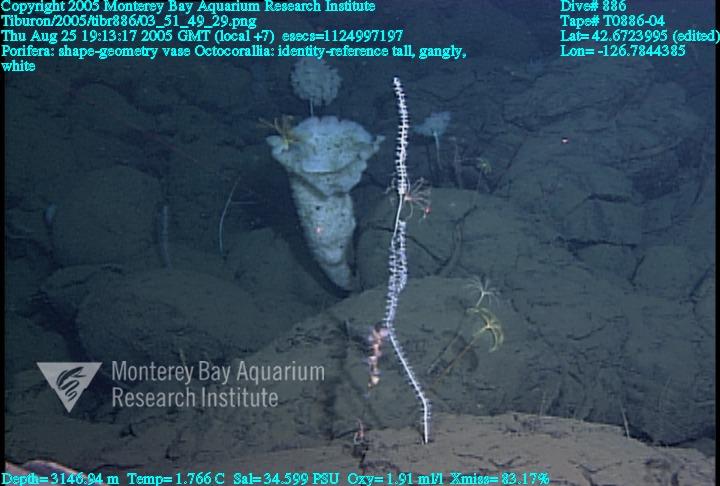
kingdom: Animalia
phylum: Porifera
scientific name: Porifera
